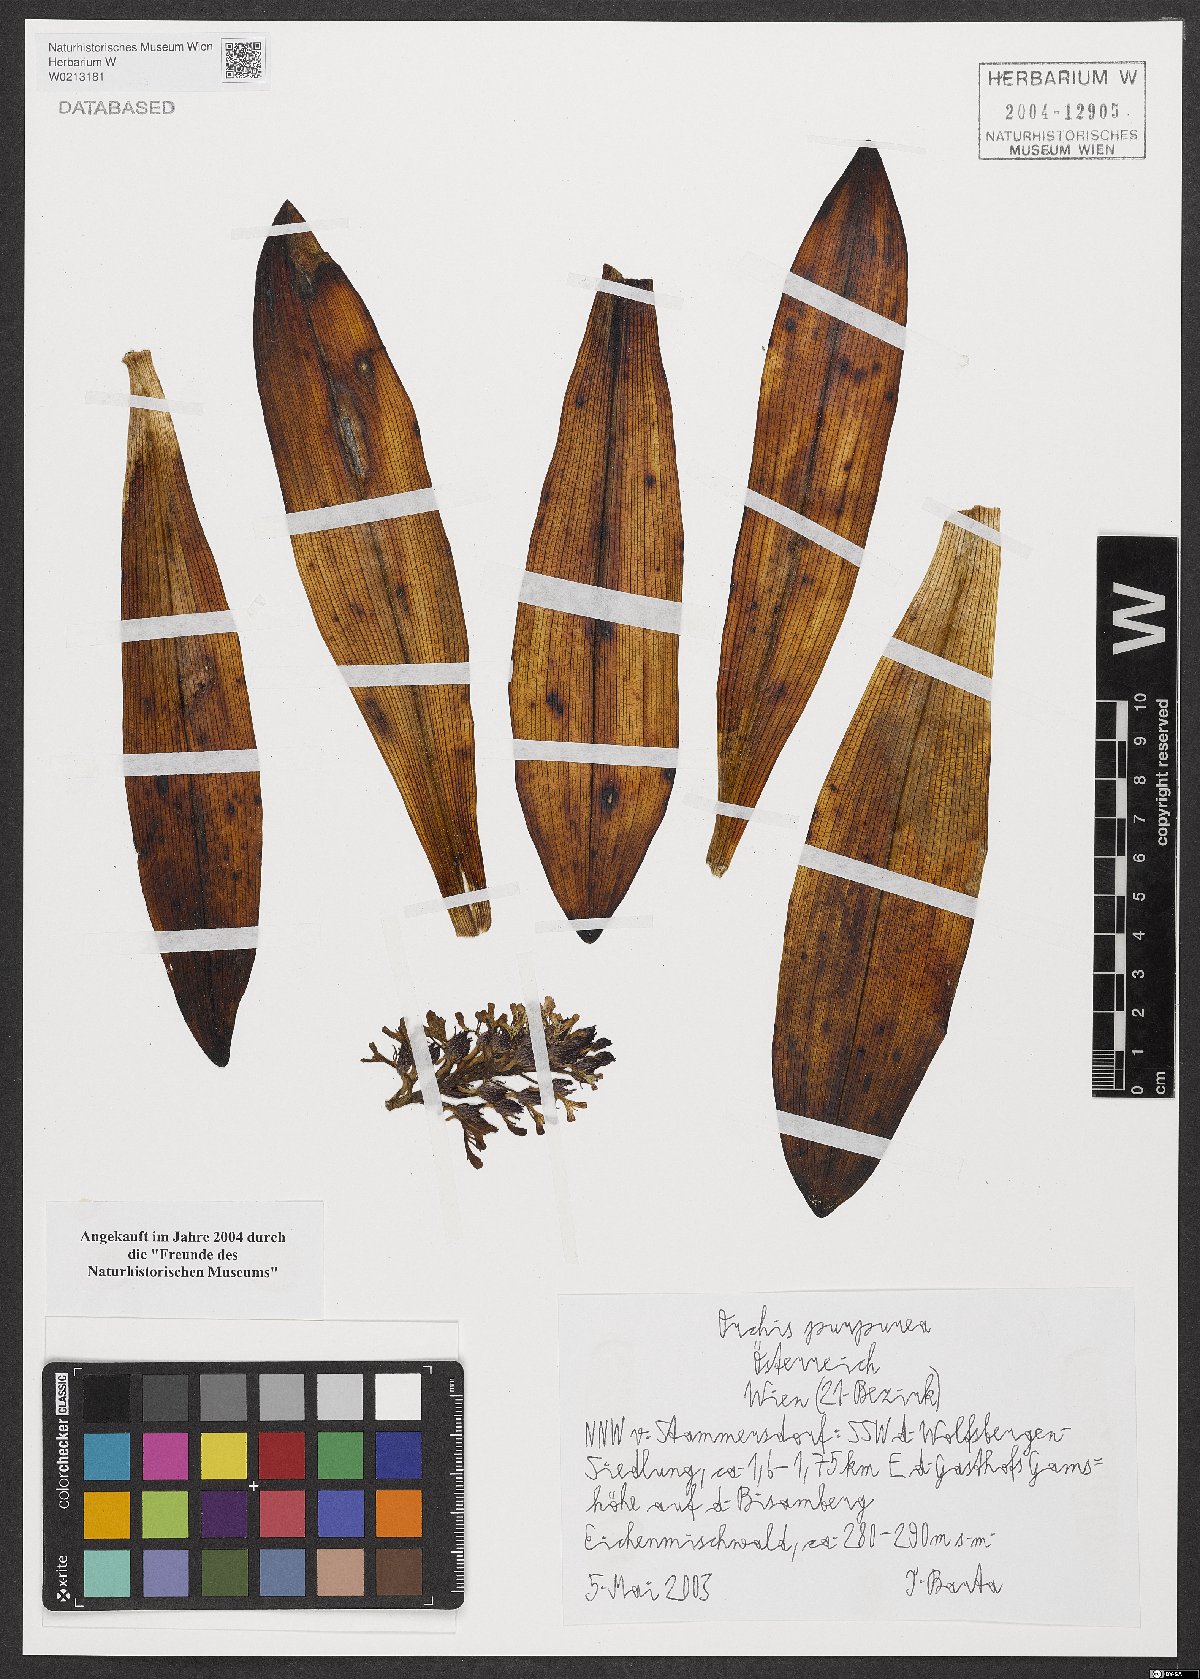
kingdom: Plantae
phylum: Tracheophyta
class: Liliopsida
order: Asparagales
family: Orchidaceae
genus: Orchis
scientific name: Orchis purpurea
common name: Lady orchid
